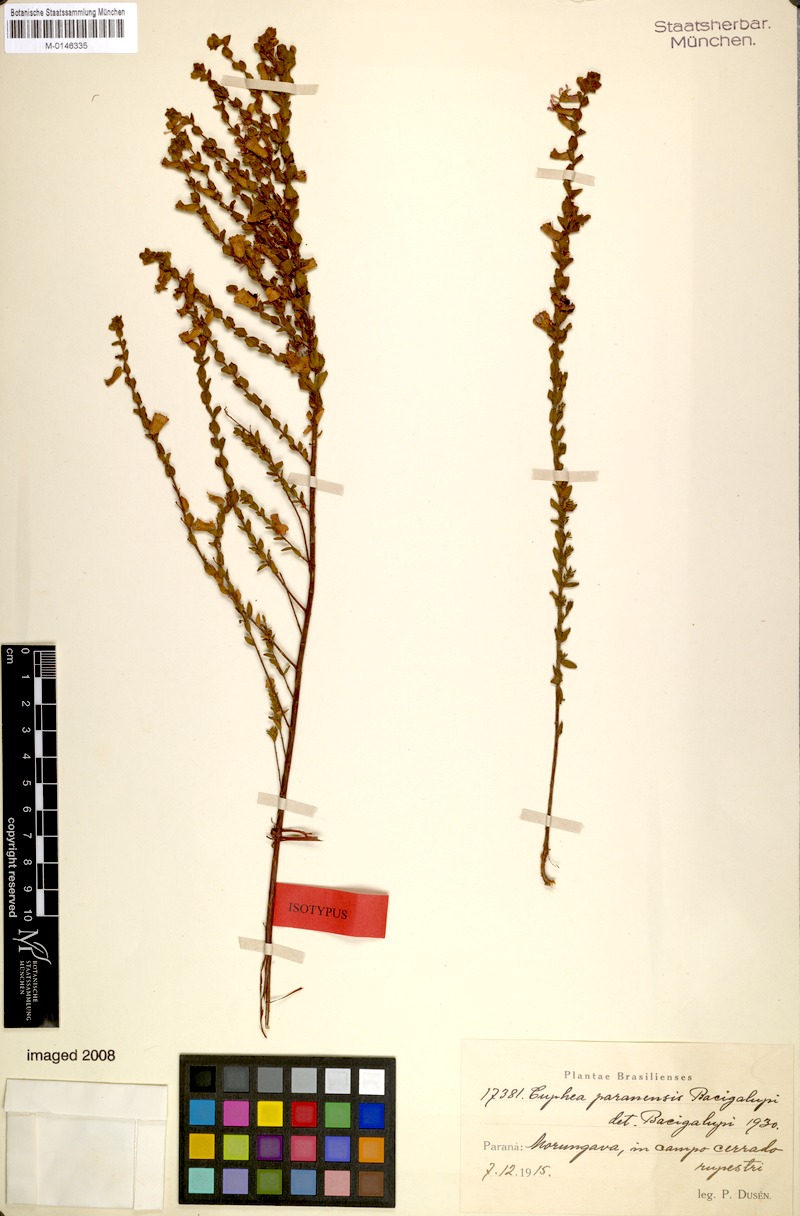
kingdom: Plantae
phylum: Tracheophyta
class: Magnoliopsida
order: Myrtales
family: Lythraceae
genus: Cuphea
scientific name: Cuphea paranensis
